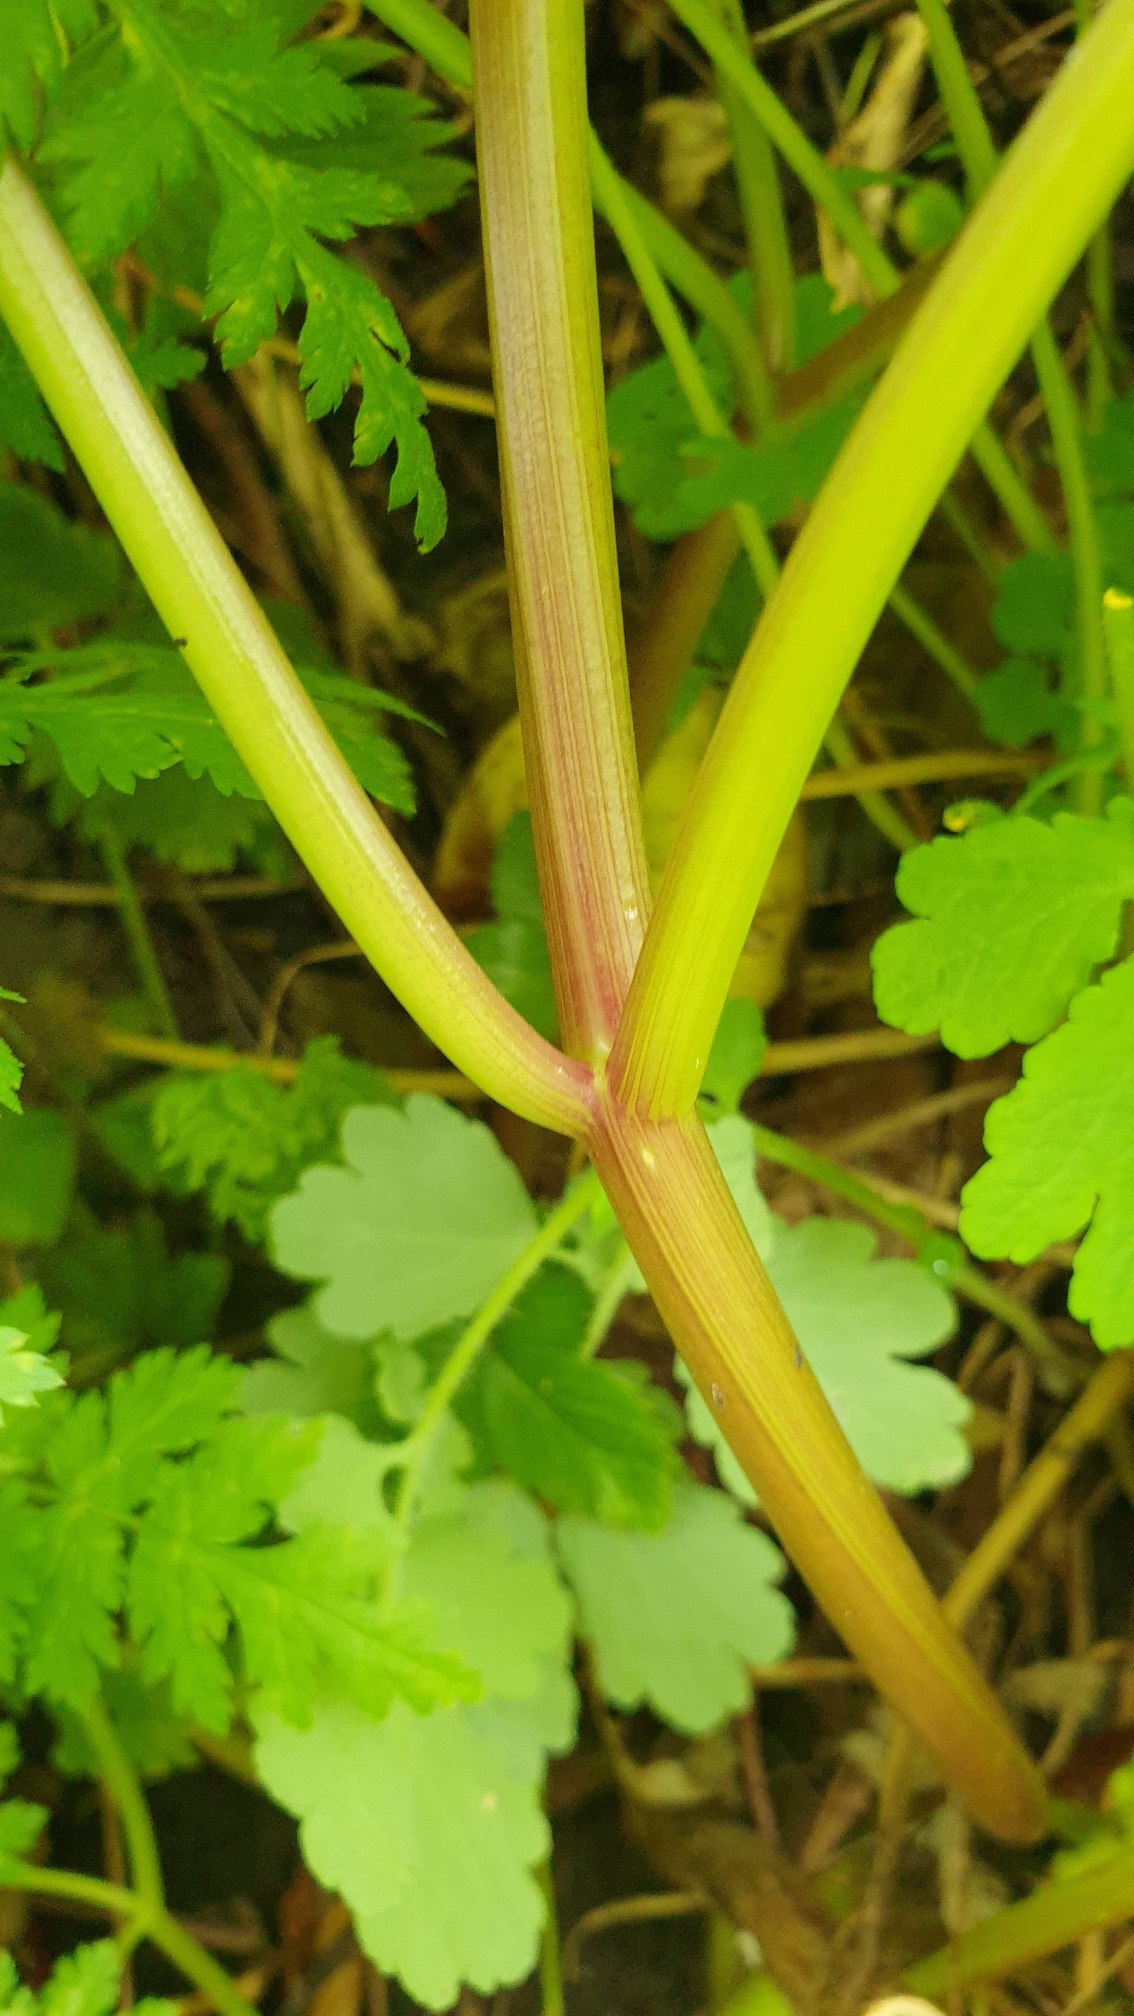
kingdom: Plantae
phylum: Tracheophyta
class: Magnoliopsida
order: Apiales
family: Apiaceae
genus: Myrrhis
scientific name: Myrrhis odorata
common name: Sødskærm
